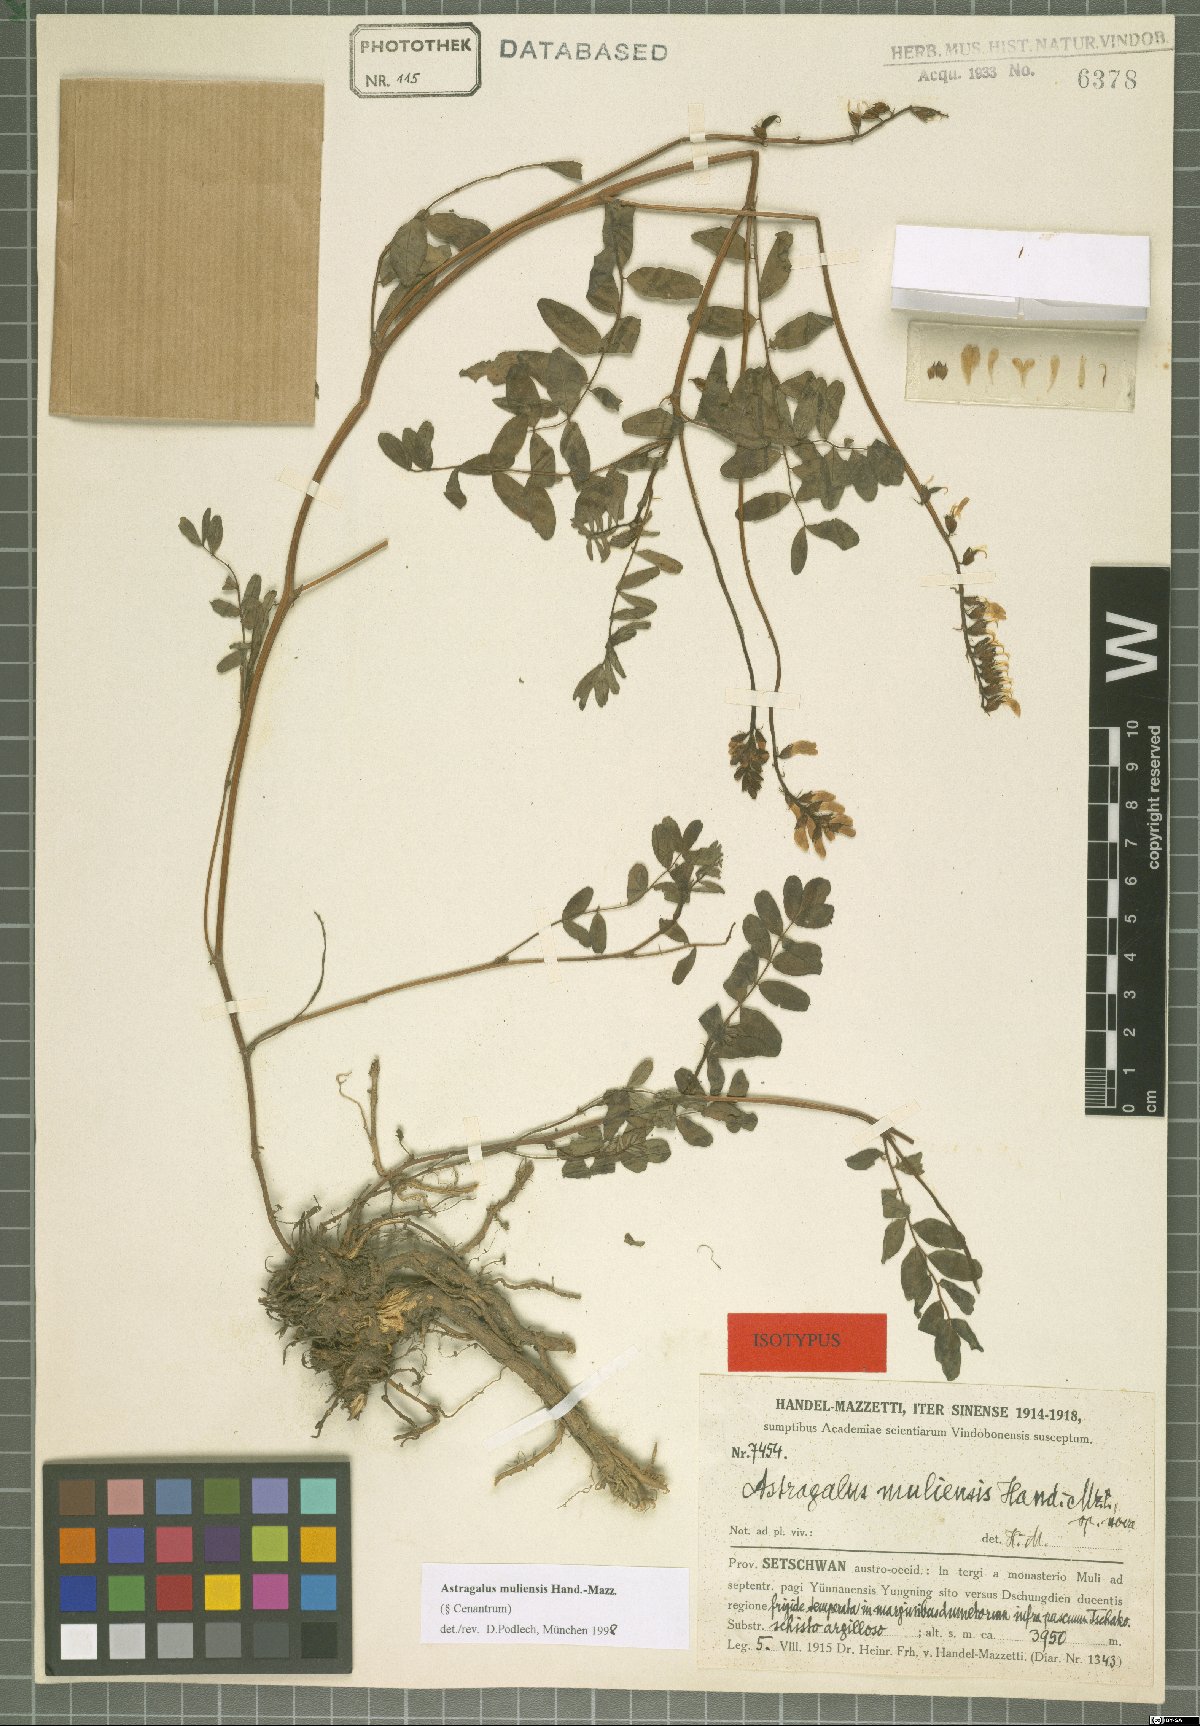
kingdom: Plantae
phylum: Tracheophyta
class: Magnoliopsida
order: Fabales
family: Fabaceae
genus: Astragalus
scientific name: Astragalus muliensis
